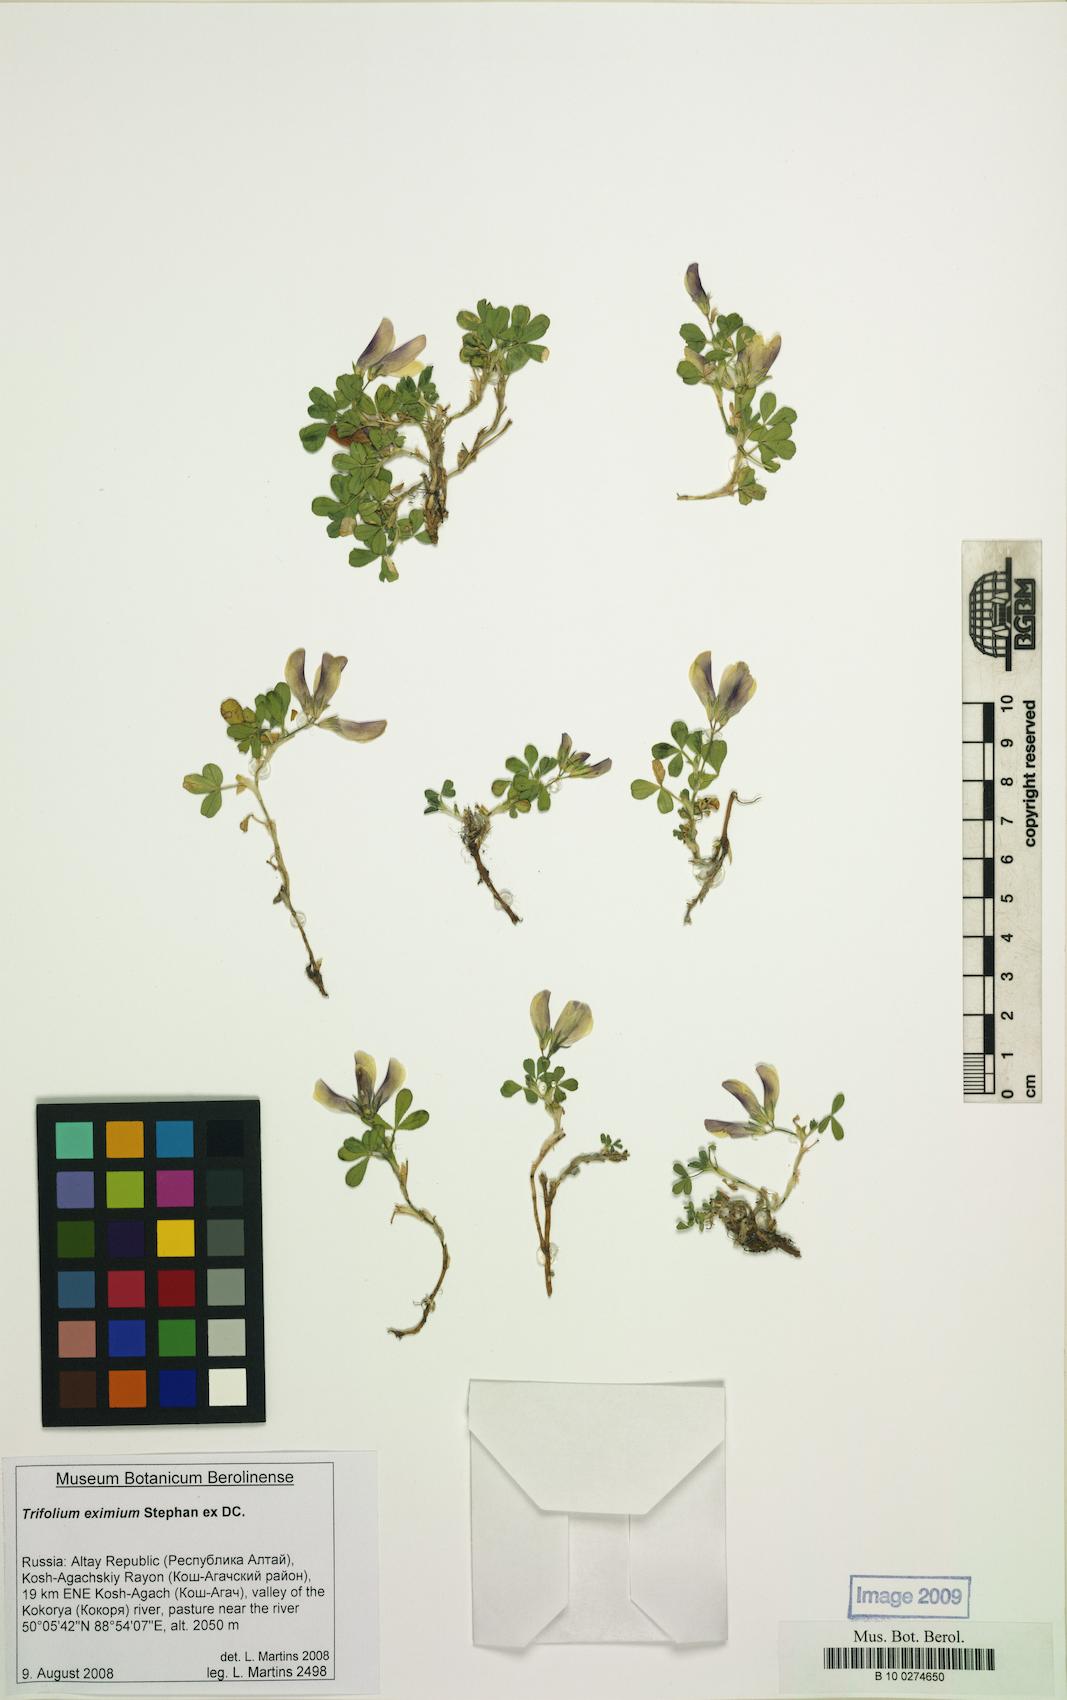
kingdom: Plantae
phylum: Tracheophyta
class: Magnoliopsida
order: Fabales
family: Fabaceae
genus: Trifolium
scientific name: Trifolium eximium
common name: Excellent clover
